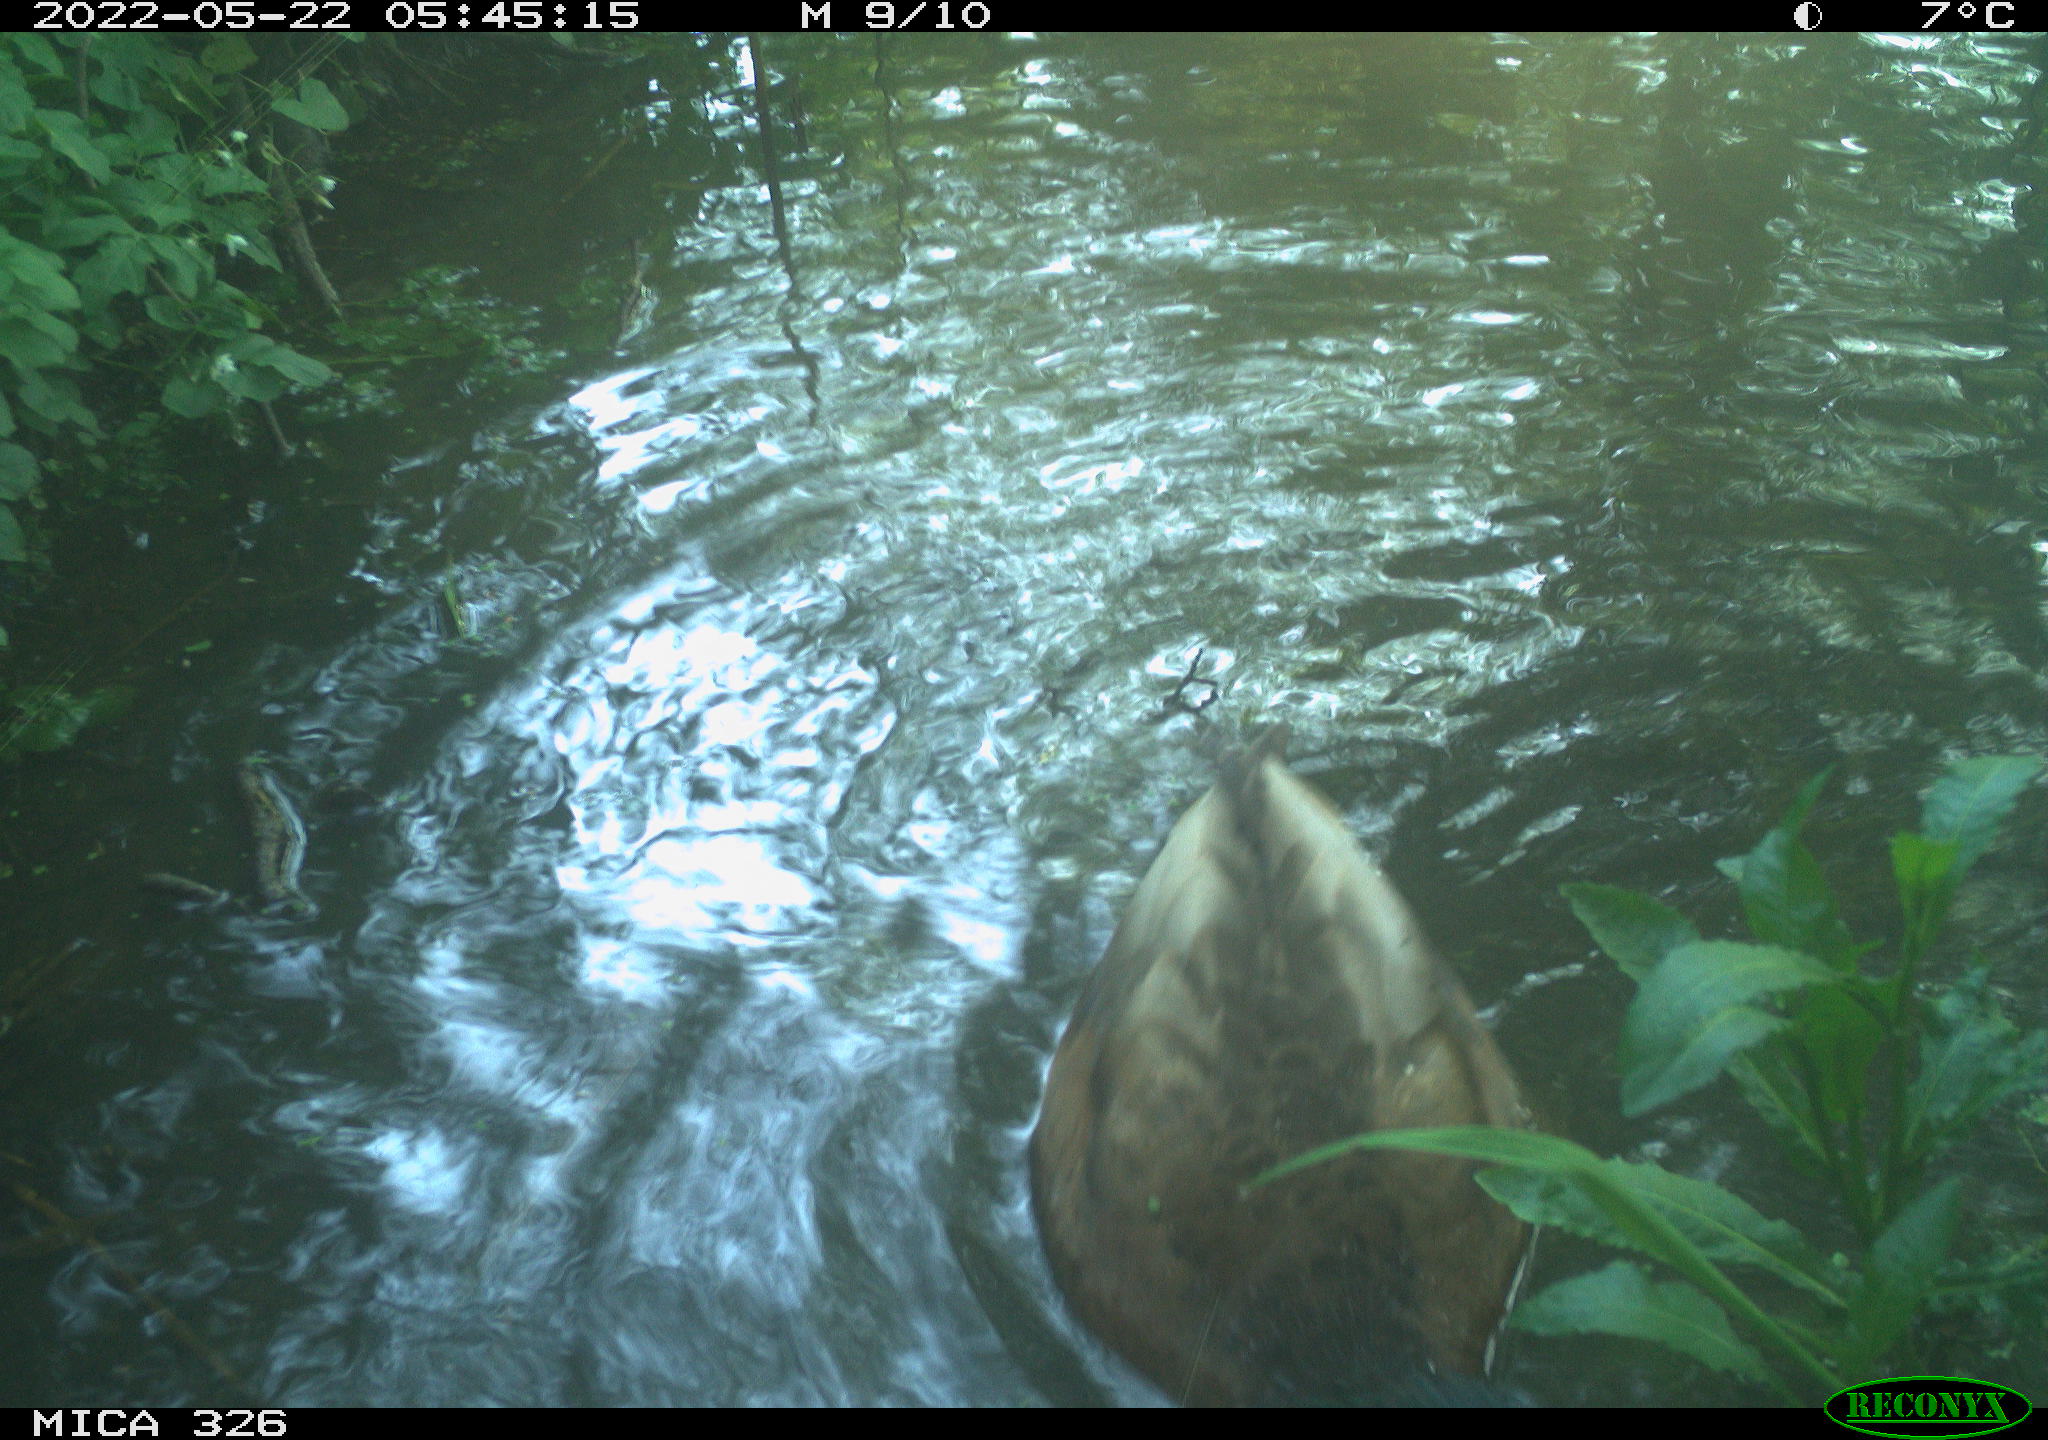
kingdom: Animalia
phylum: Chordata
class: Aves
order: Anseriformes
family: Anatidae
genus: Anas
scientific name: Anas platyrhynchos
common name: Mallard
